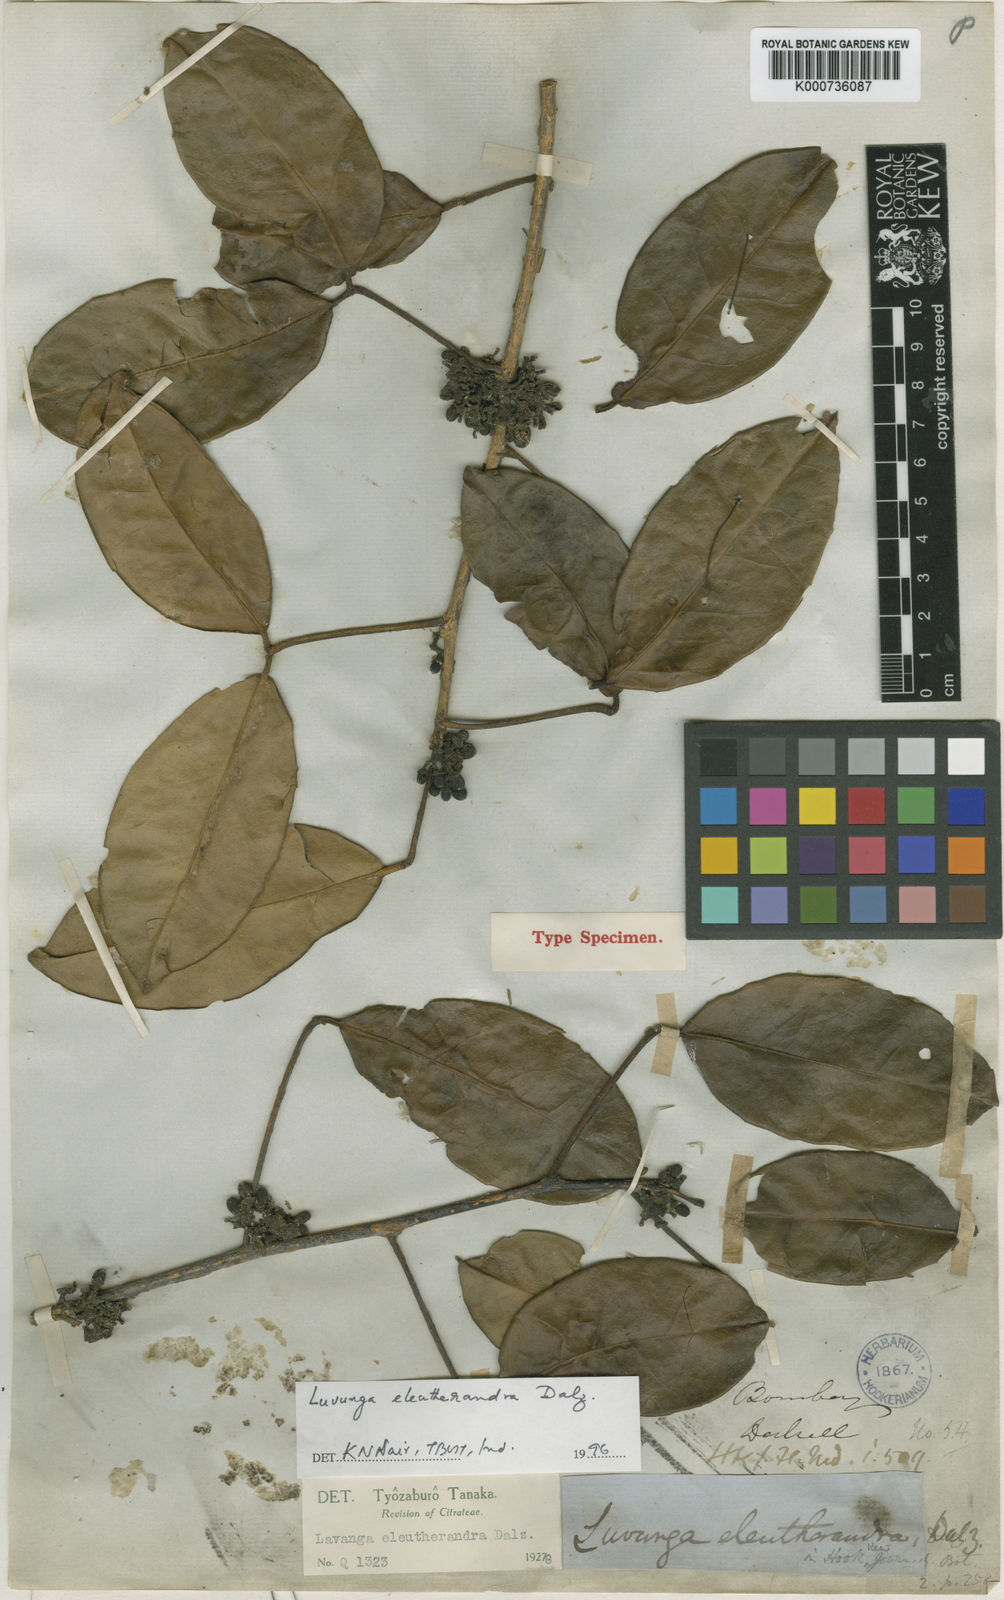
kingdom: Plantae
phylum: Tracheophyta
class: Magnoliopsida
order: Sapindales
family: Rutaceae
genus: Luvunga
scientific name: Luvunga sarmentosa
